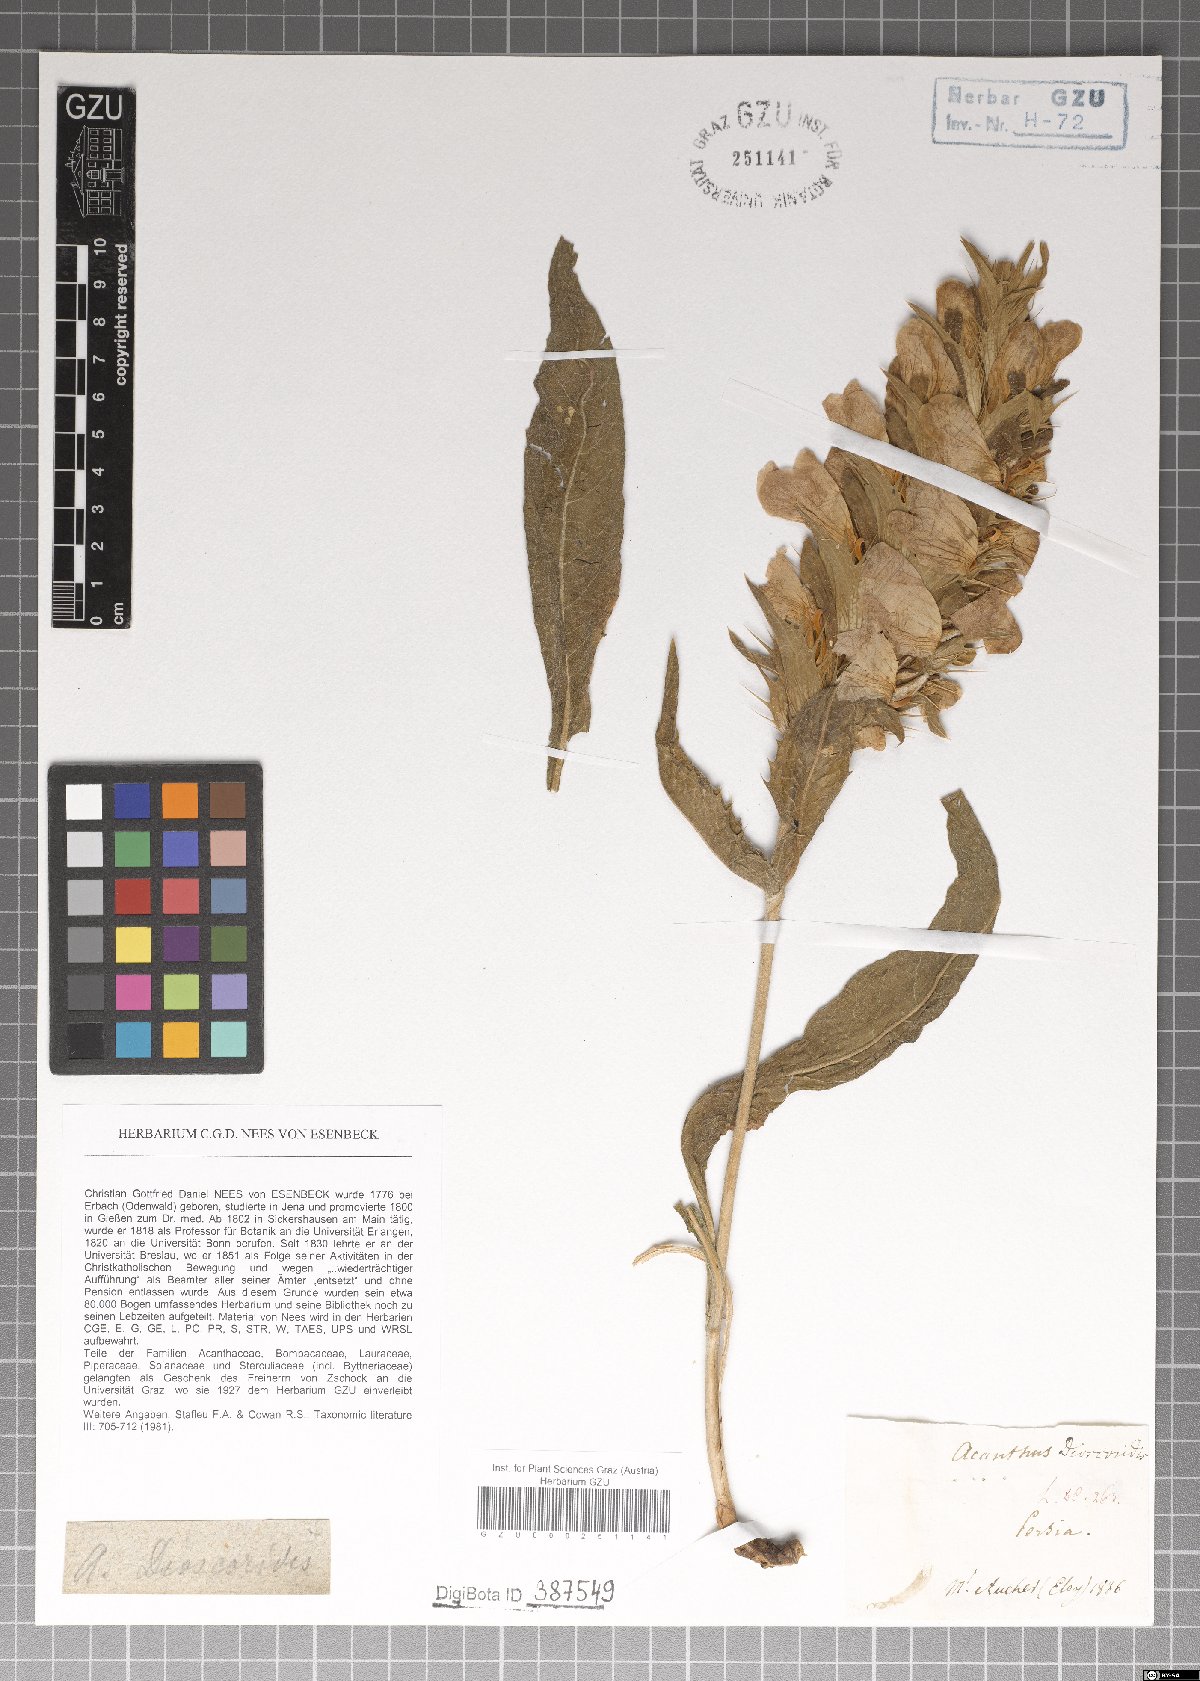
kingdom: Plantae
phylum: Tracheophyta
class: Magnoliopsida
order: Lamiales
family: Acanthaceae
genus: Acanthus
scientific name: Acanthus dioscoridis
